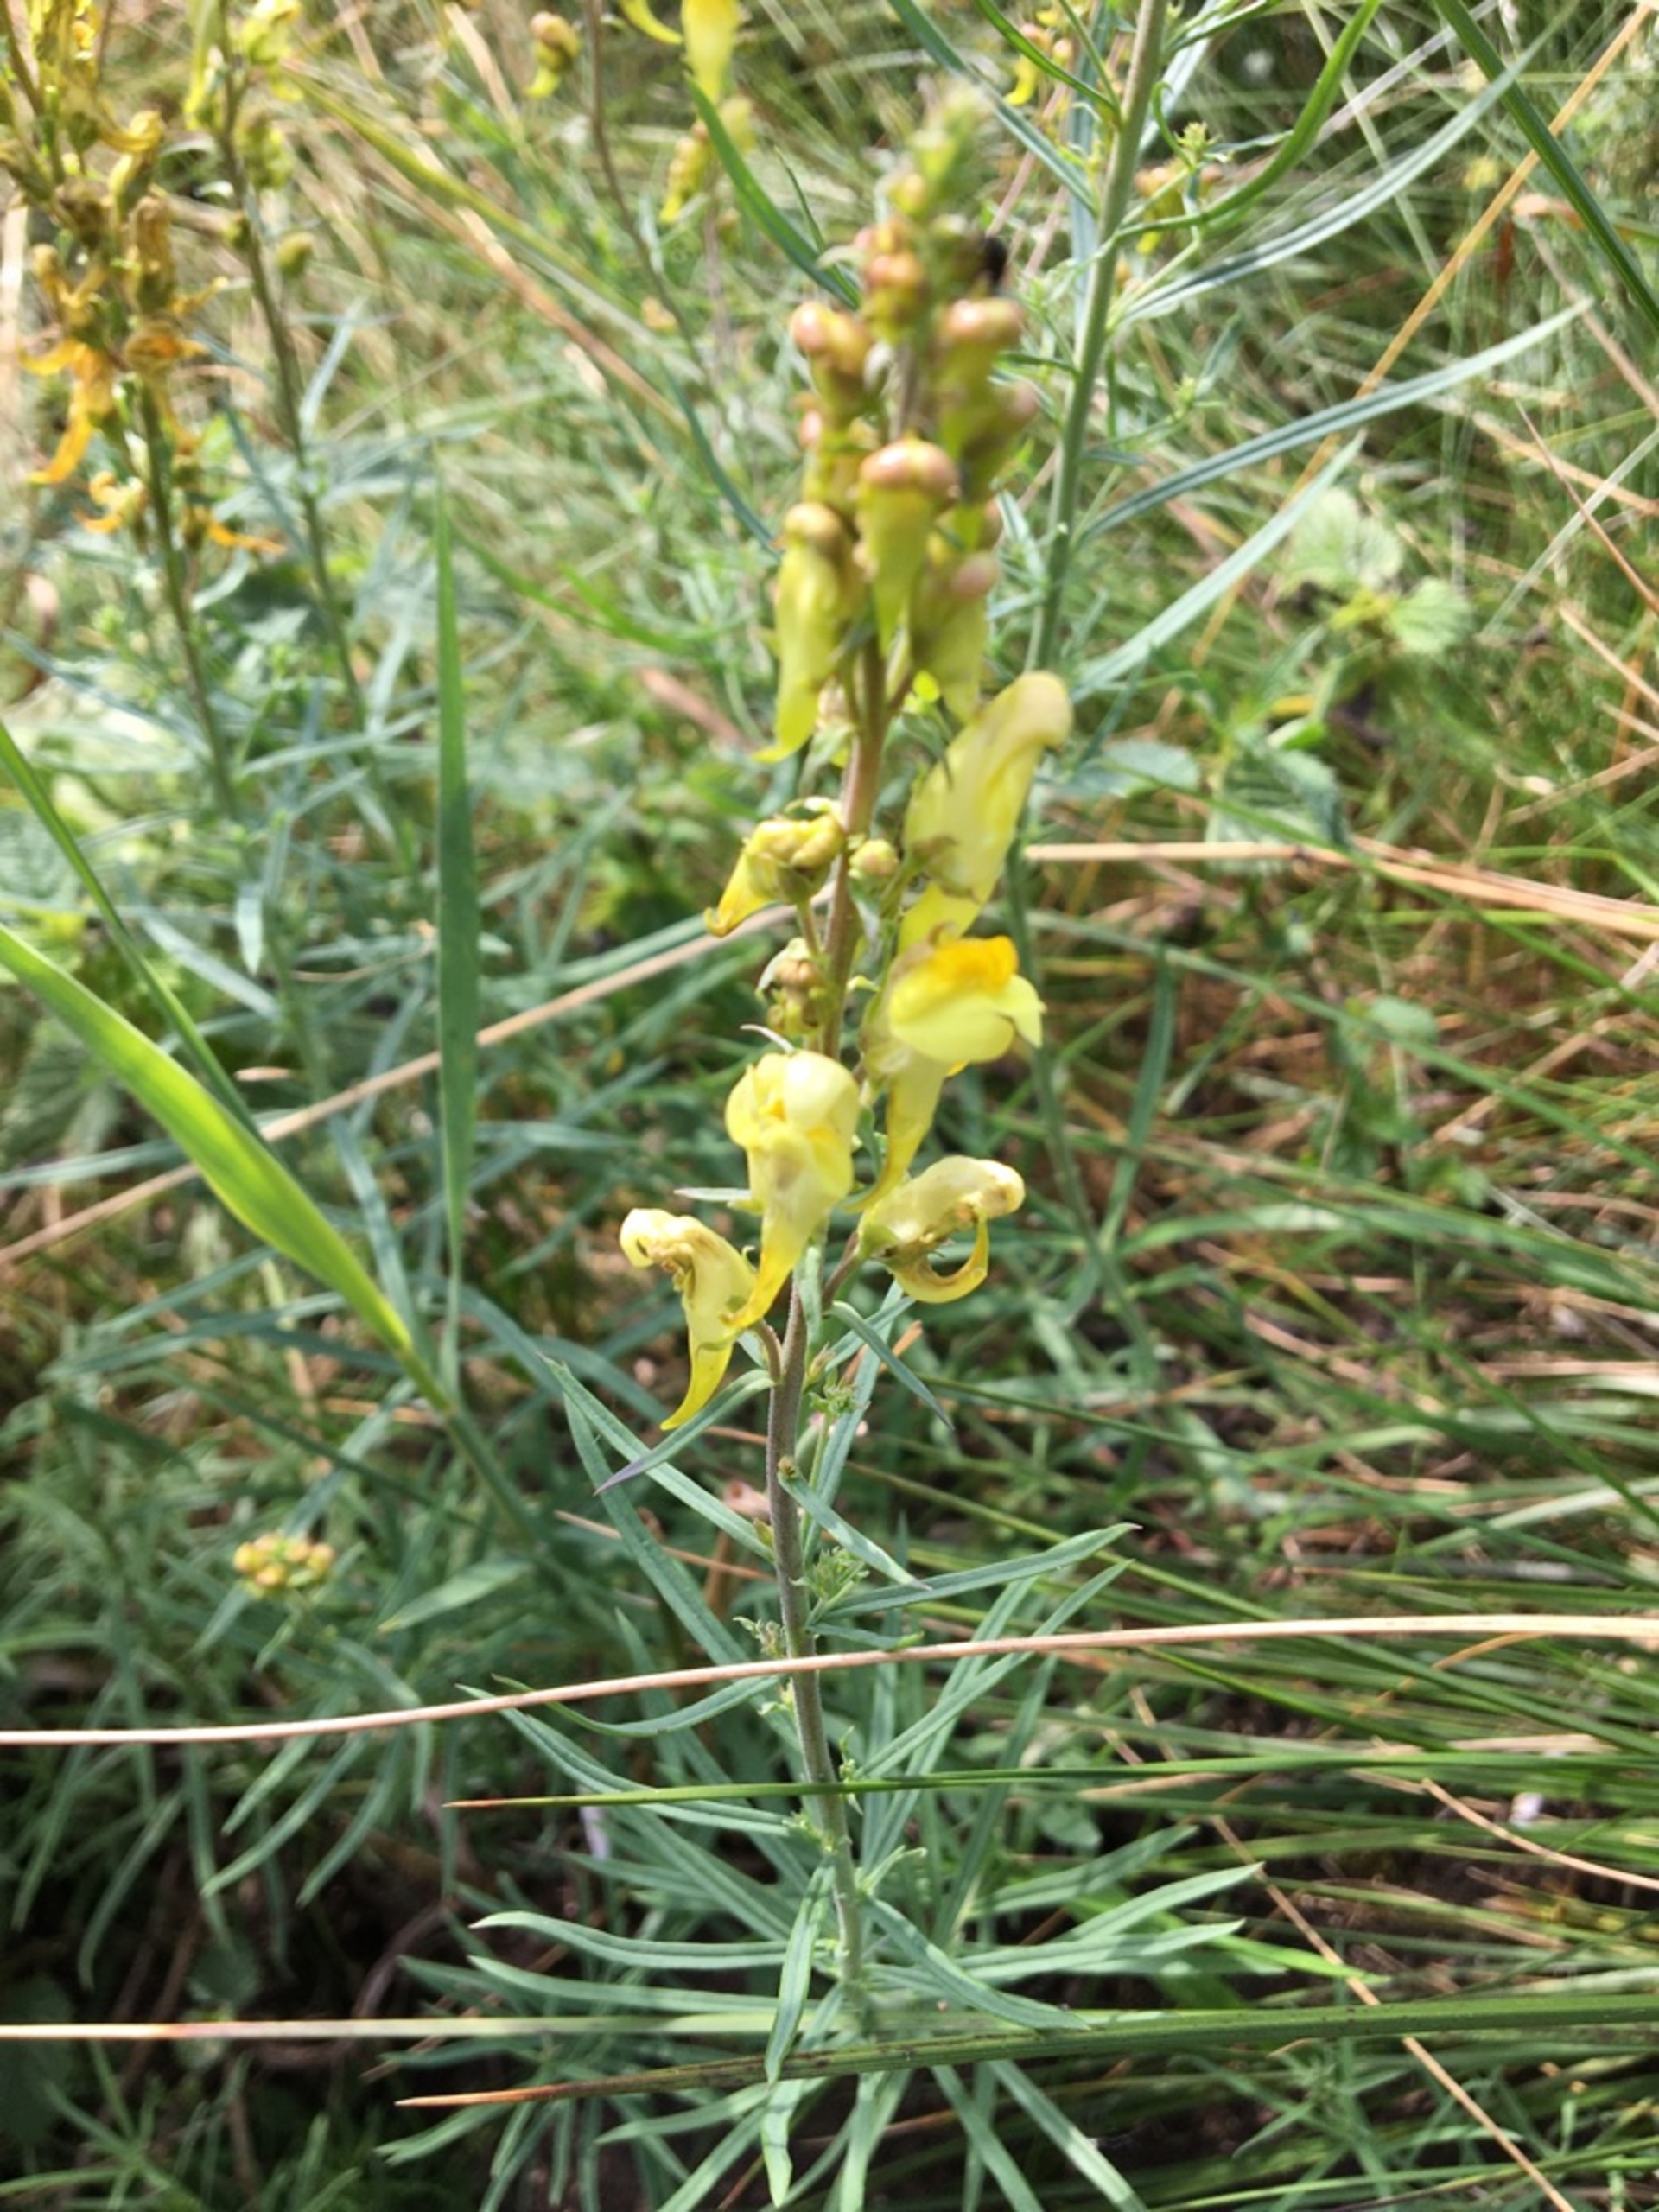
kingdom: Plantae
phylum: Tracheophyta
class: Magnoliopsida
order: Lamiales
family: Plantaginaceae
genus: Linaria
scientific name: Linaria vulgaris
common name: Almindelig torskemund
